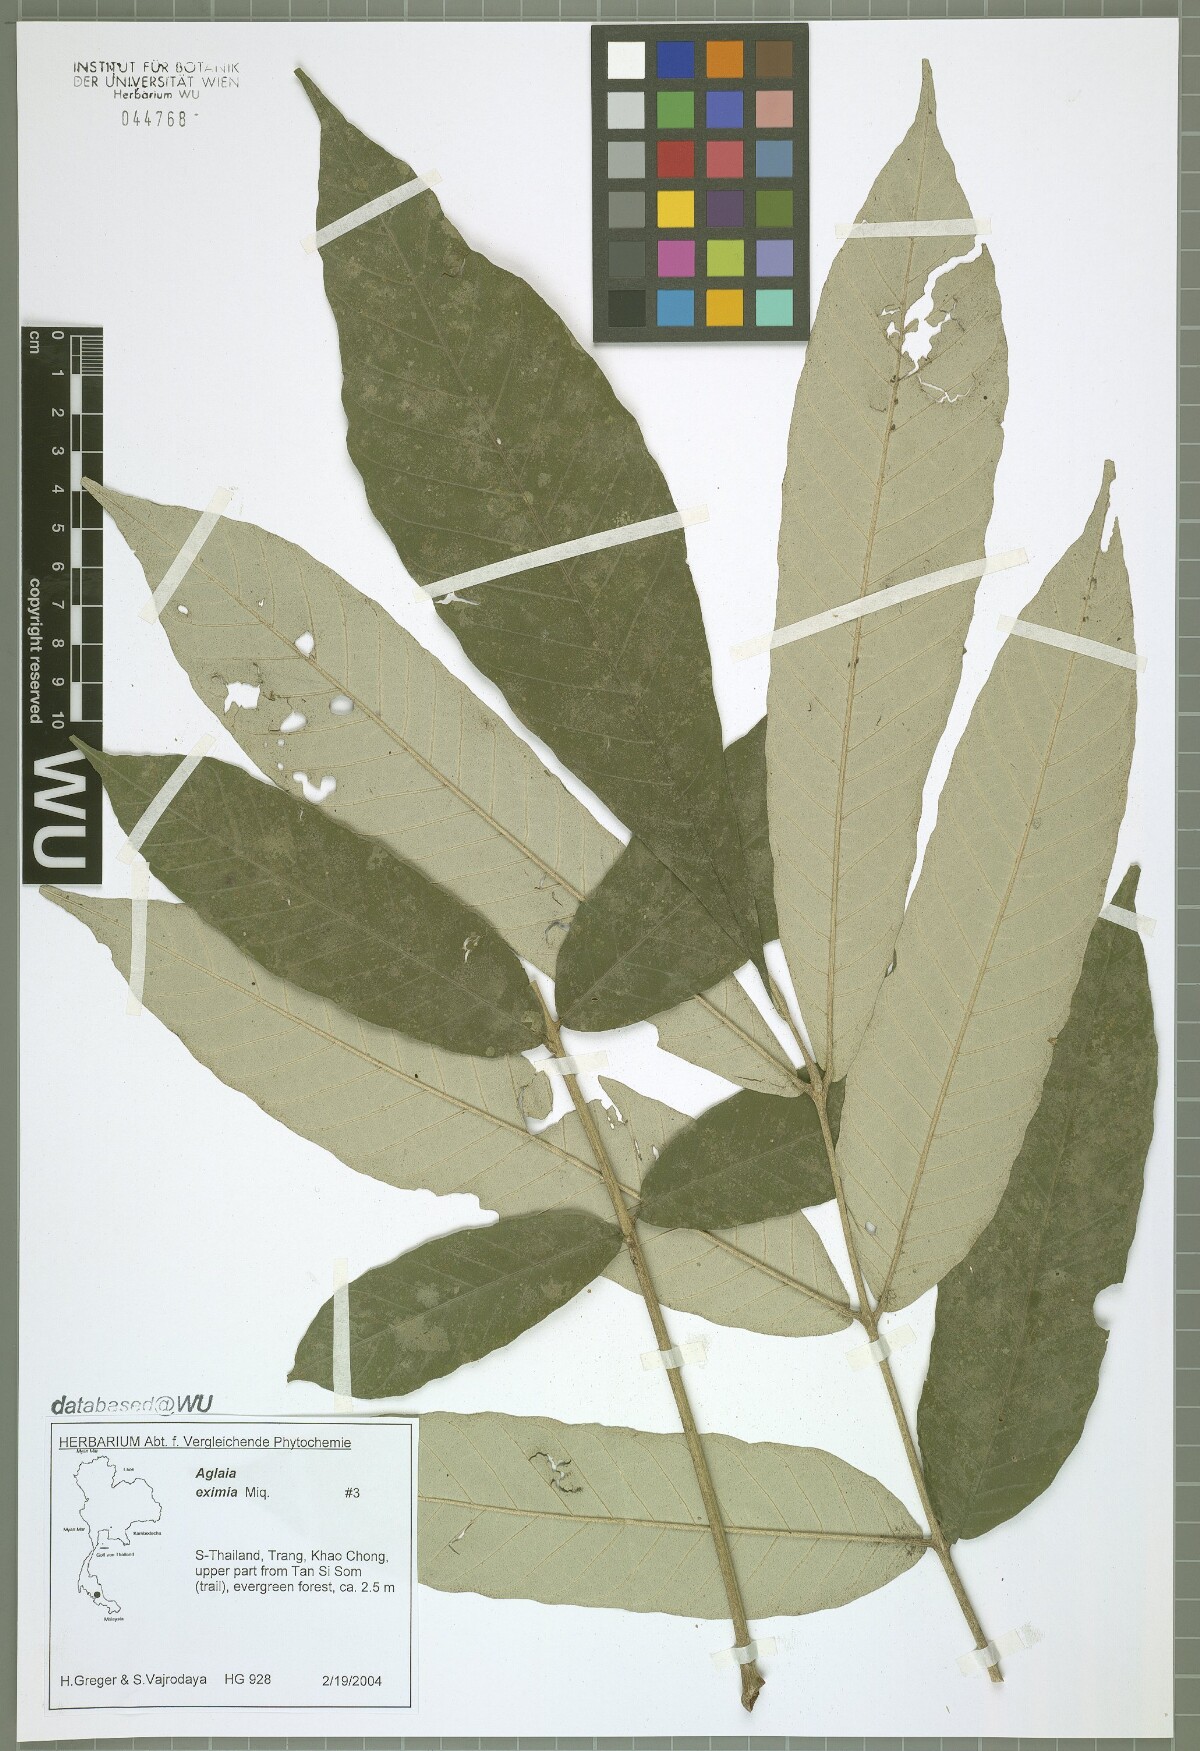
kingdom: Plantae
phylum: Tracheophyta
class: Magnoliopsida
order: Sapindales
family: Meliaceae
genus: Aglaia
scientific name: Aglaia eximia
